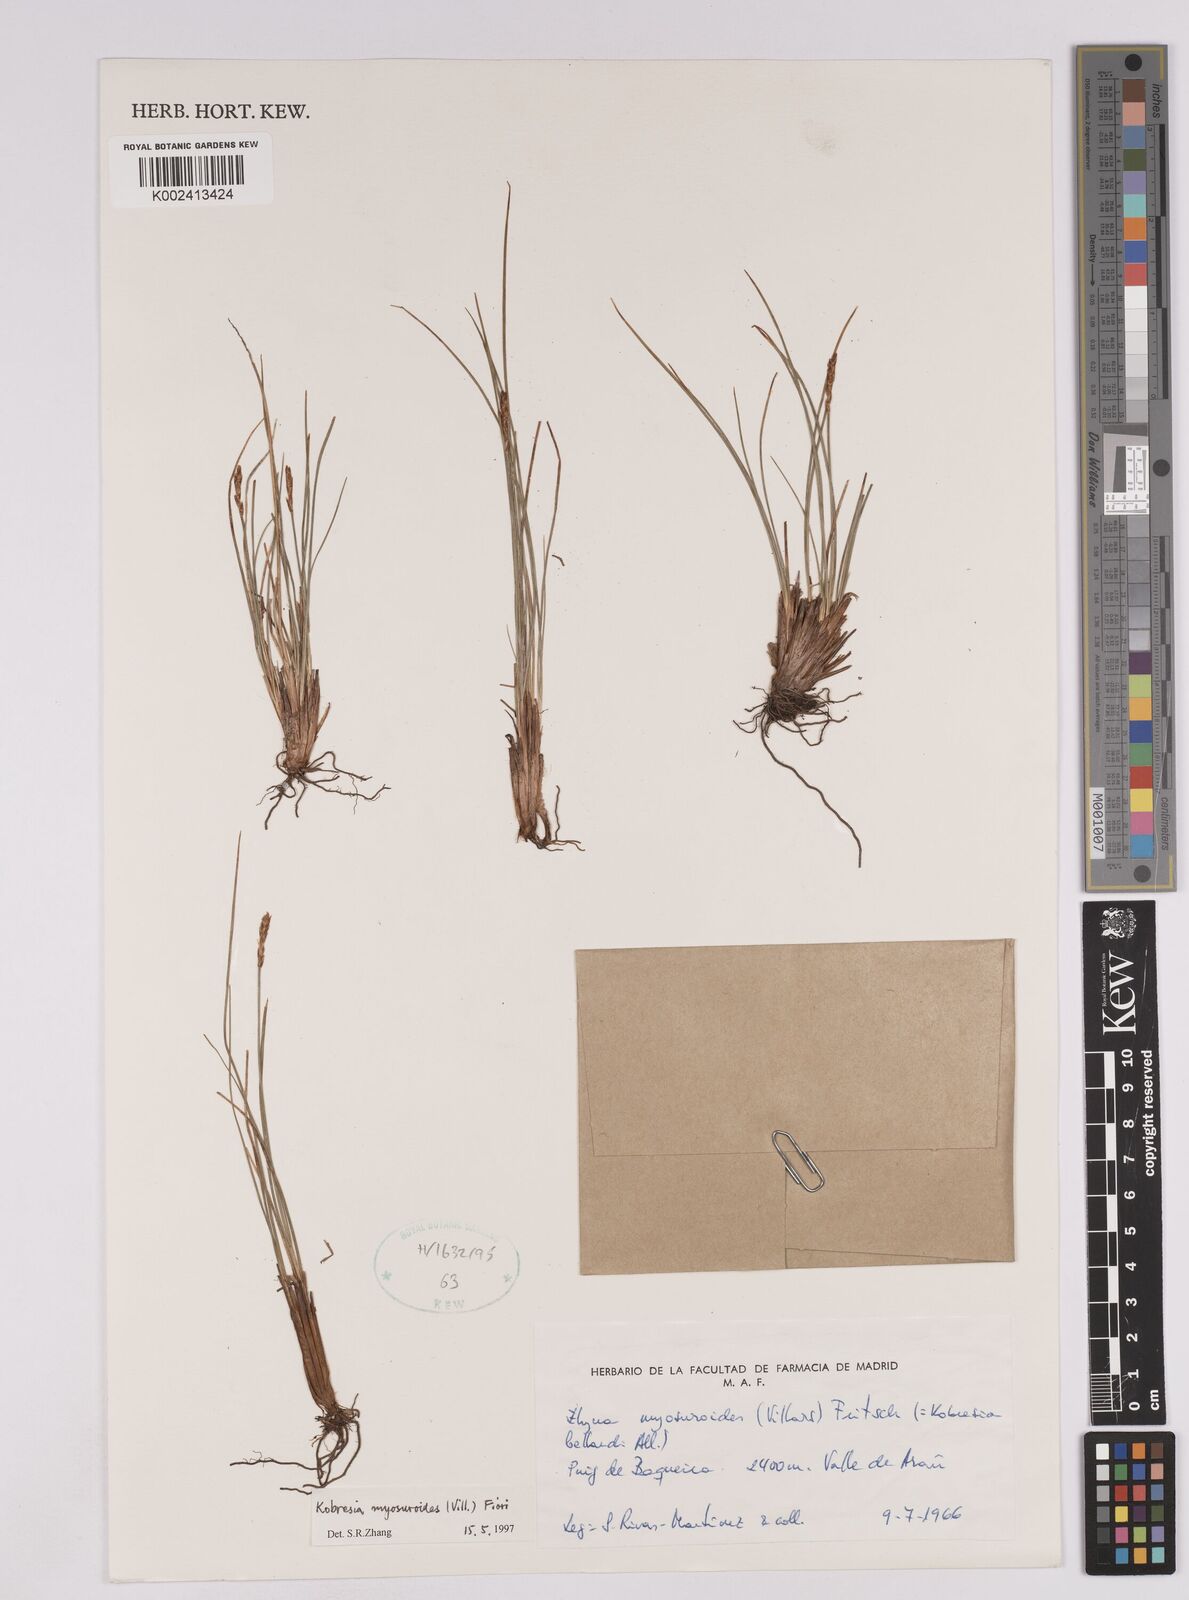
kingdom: Plantae
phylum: Tracheophyta
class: Liliopsida
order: Poales
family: Cyperaceae
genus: Carex
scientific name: Carex myosuroides
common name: Bellard's bog sedge
